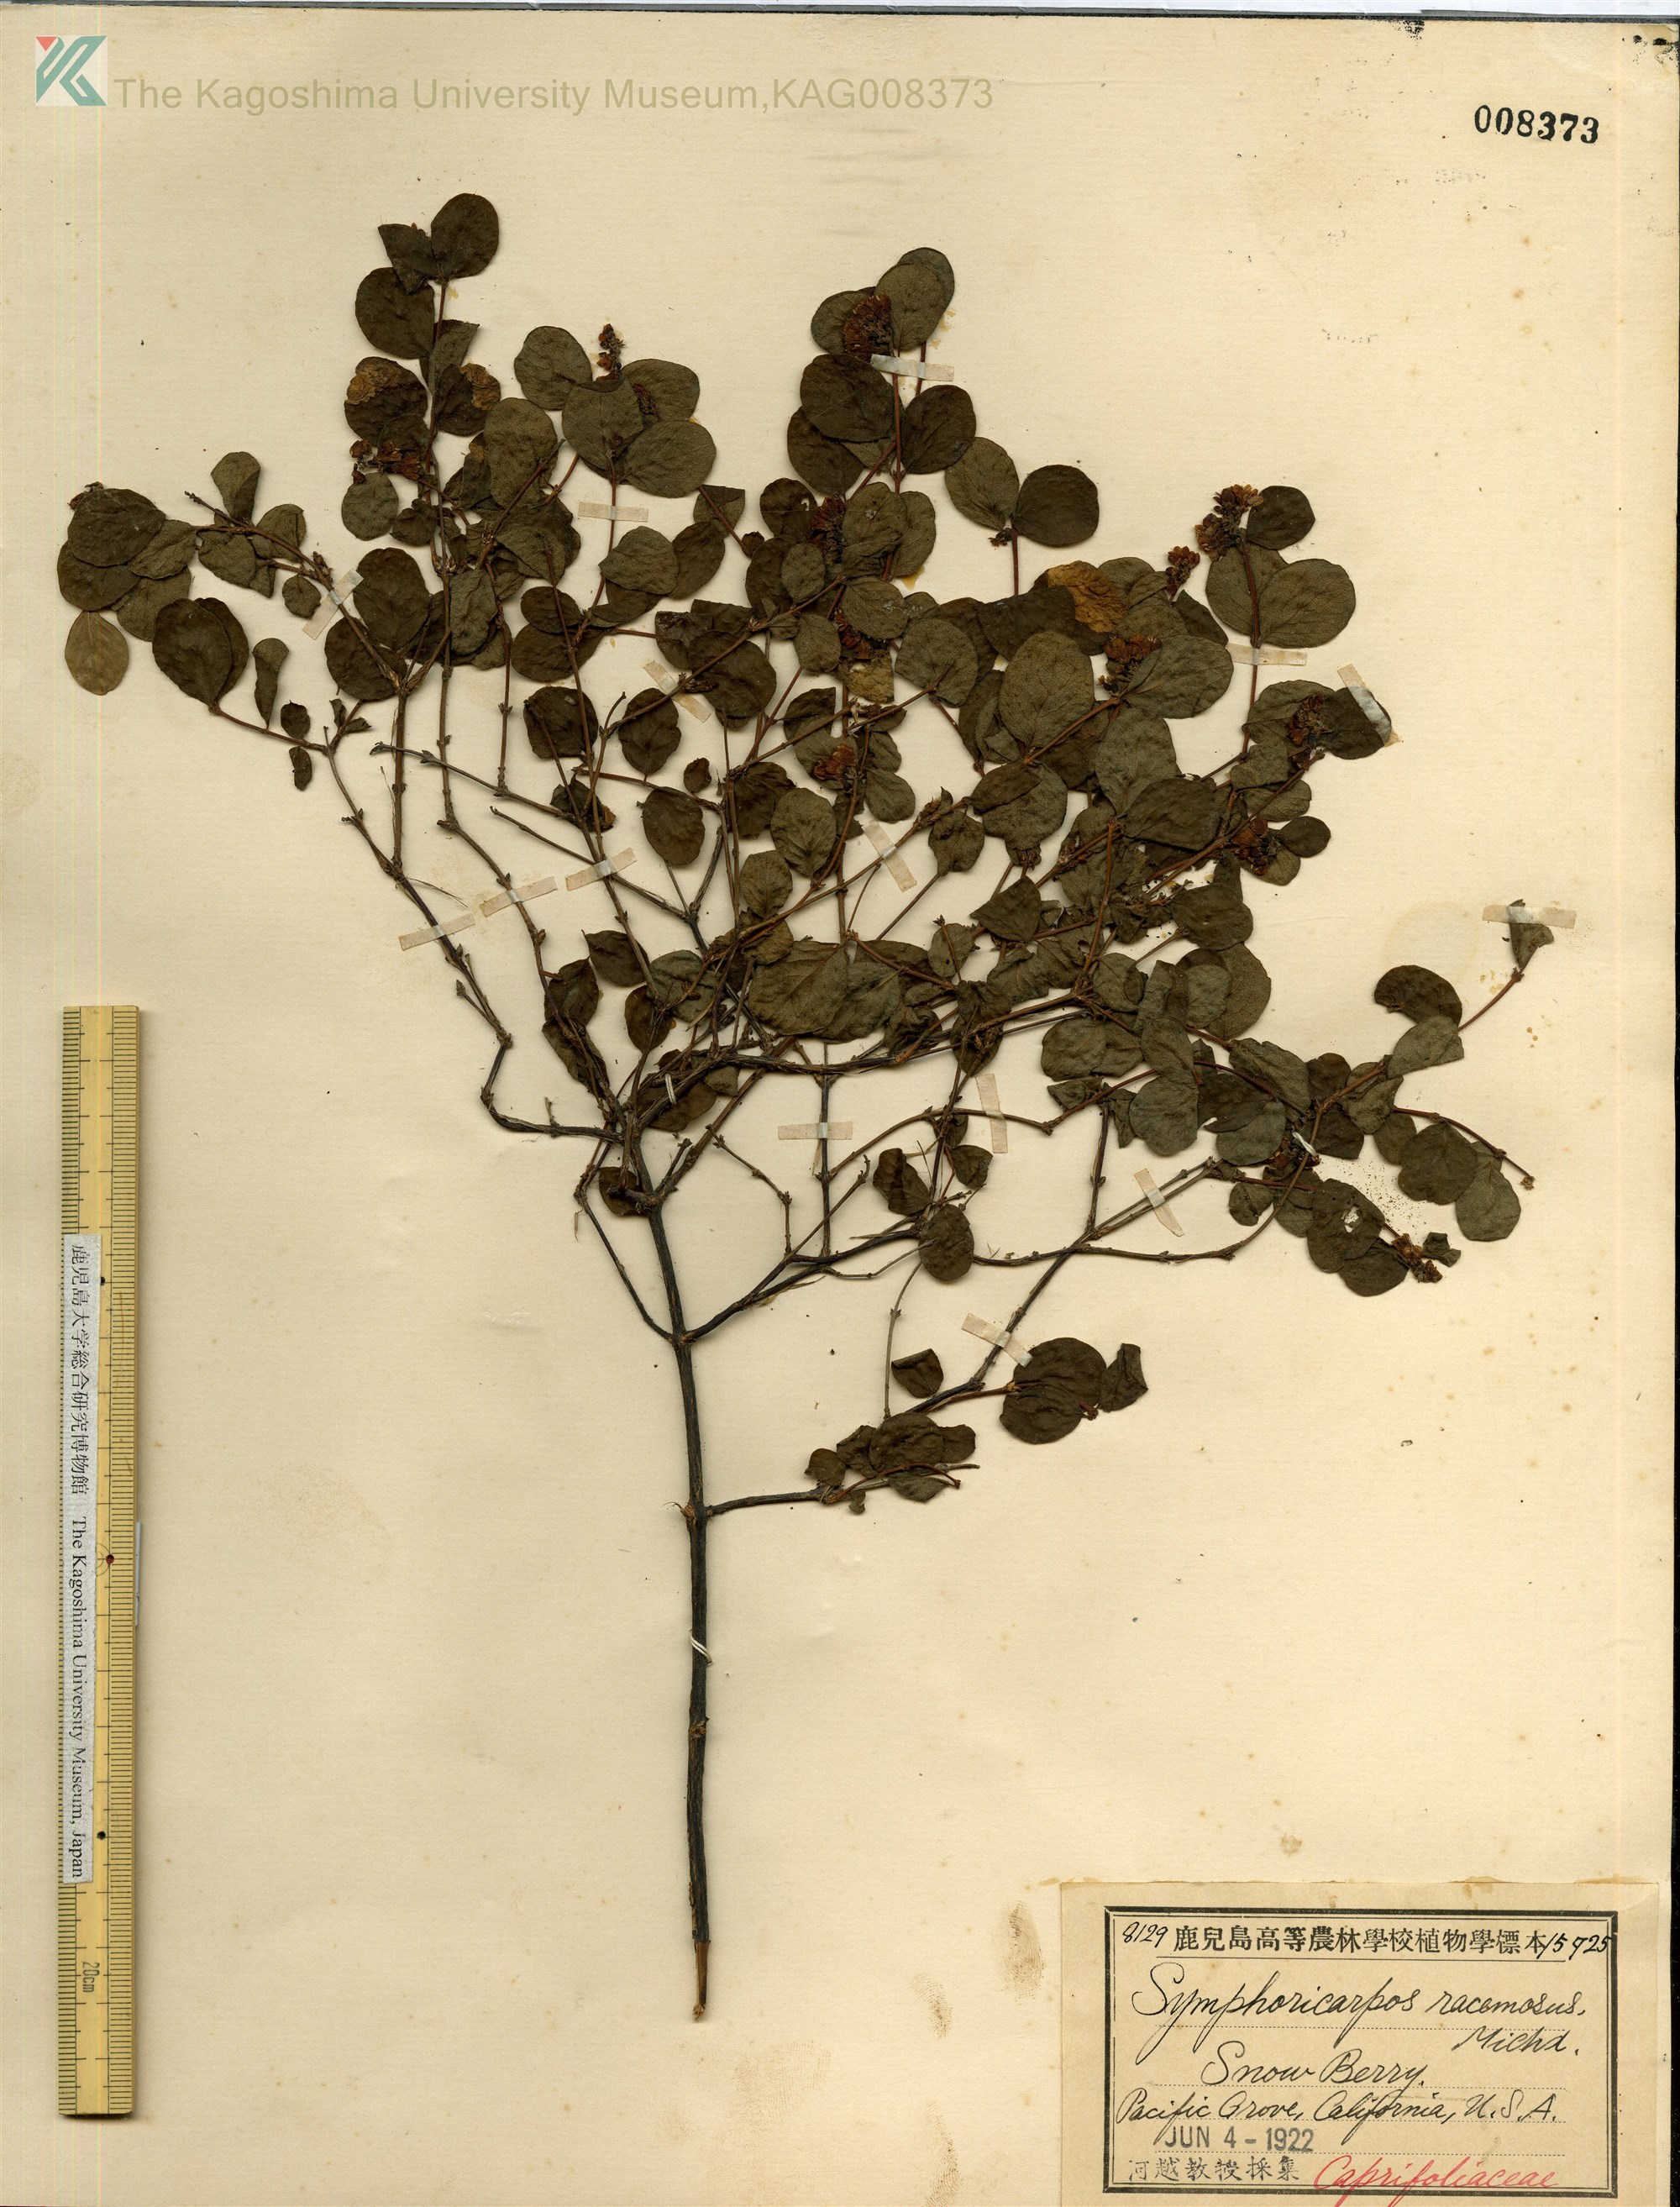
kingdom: Plantae
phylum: Tracheophyta
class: Magnoliopsida
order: Dipsacales
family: Caprifoliaceae
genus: Symphoricarpos
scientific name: Symphoricarpos albus
